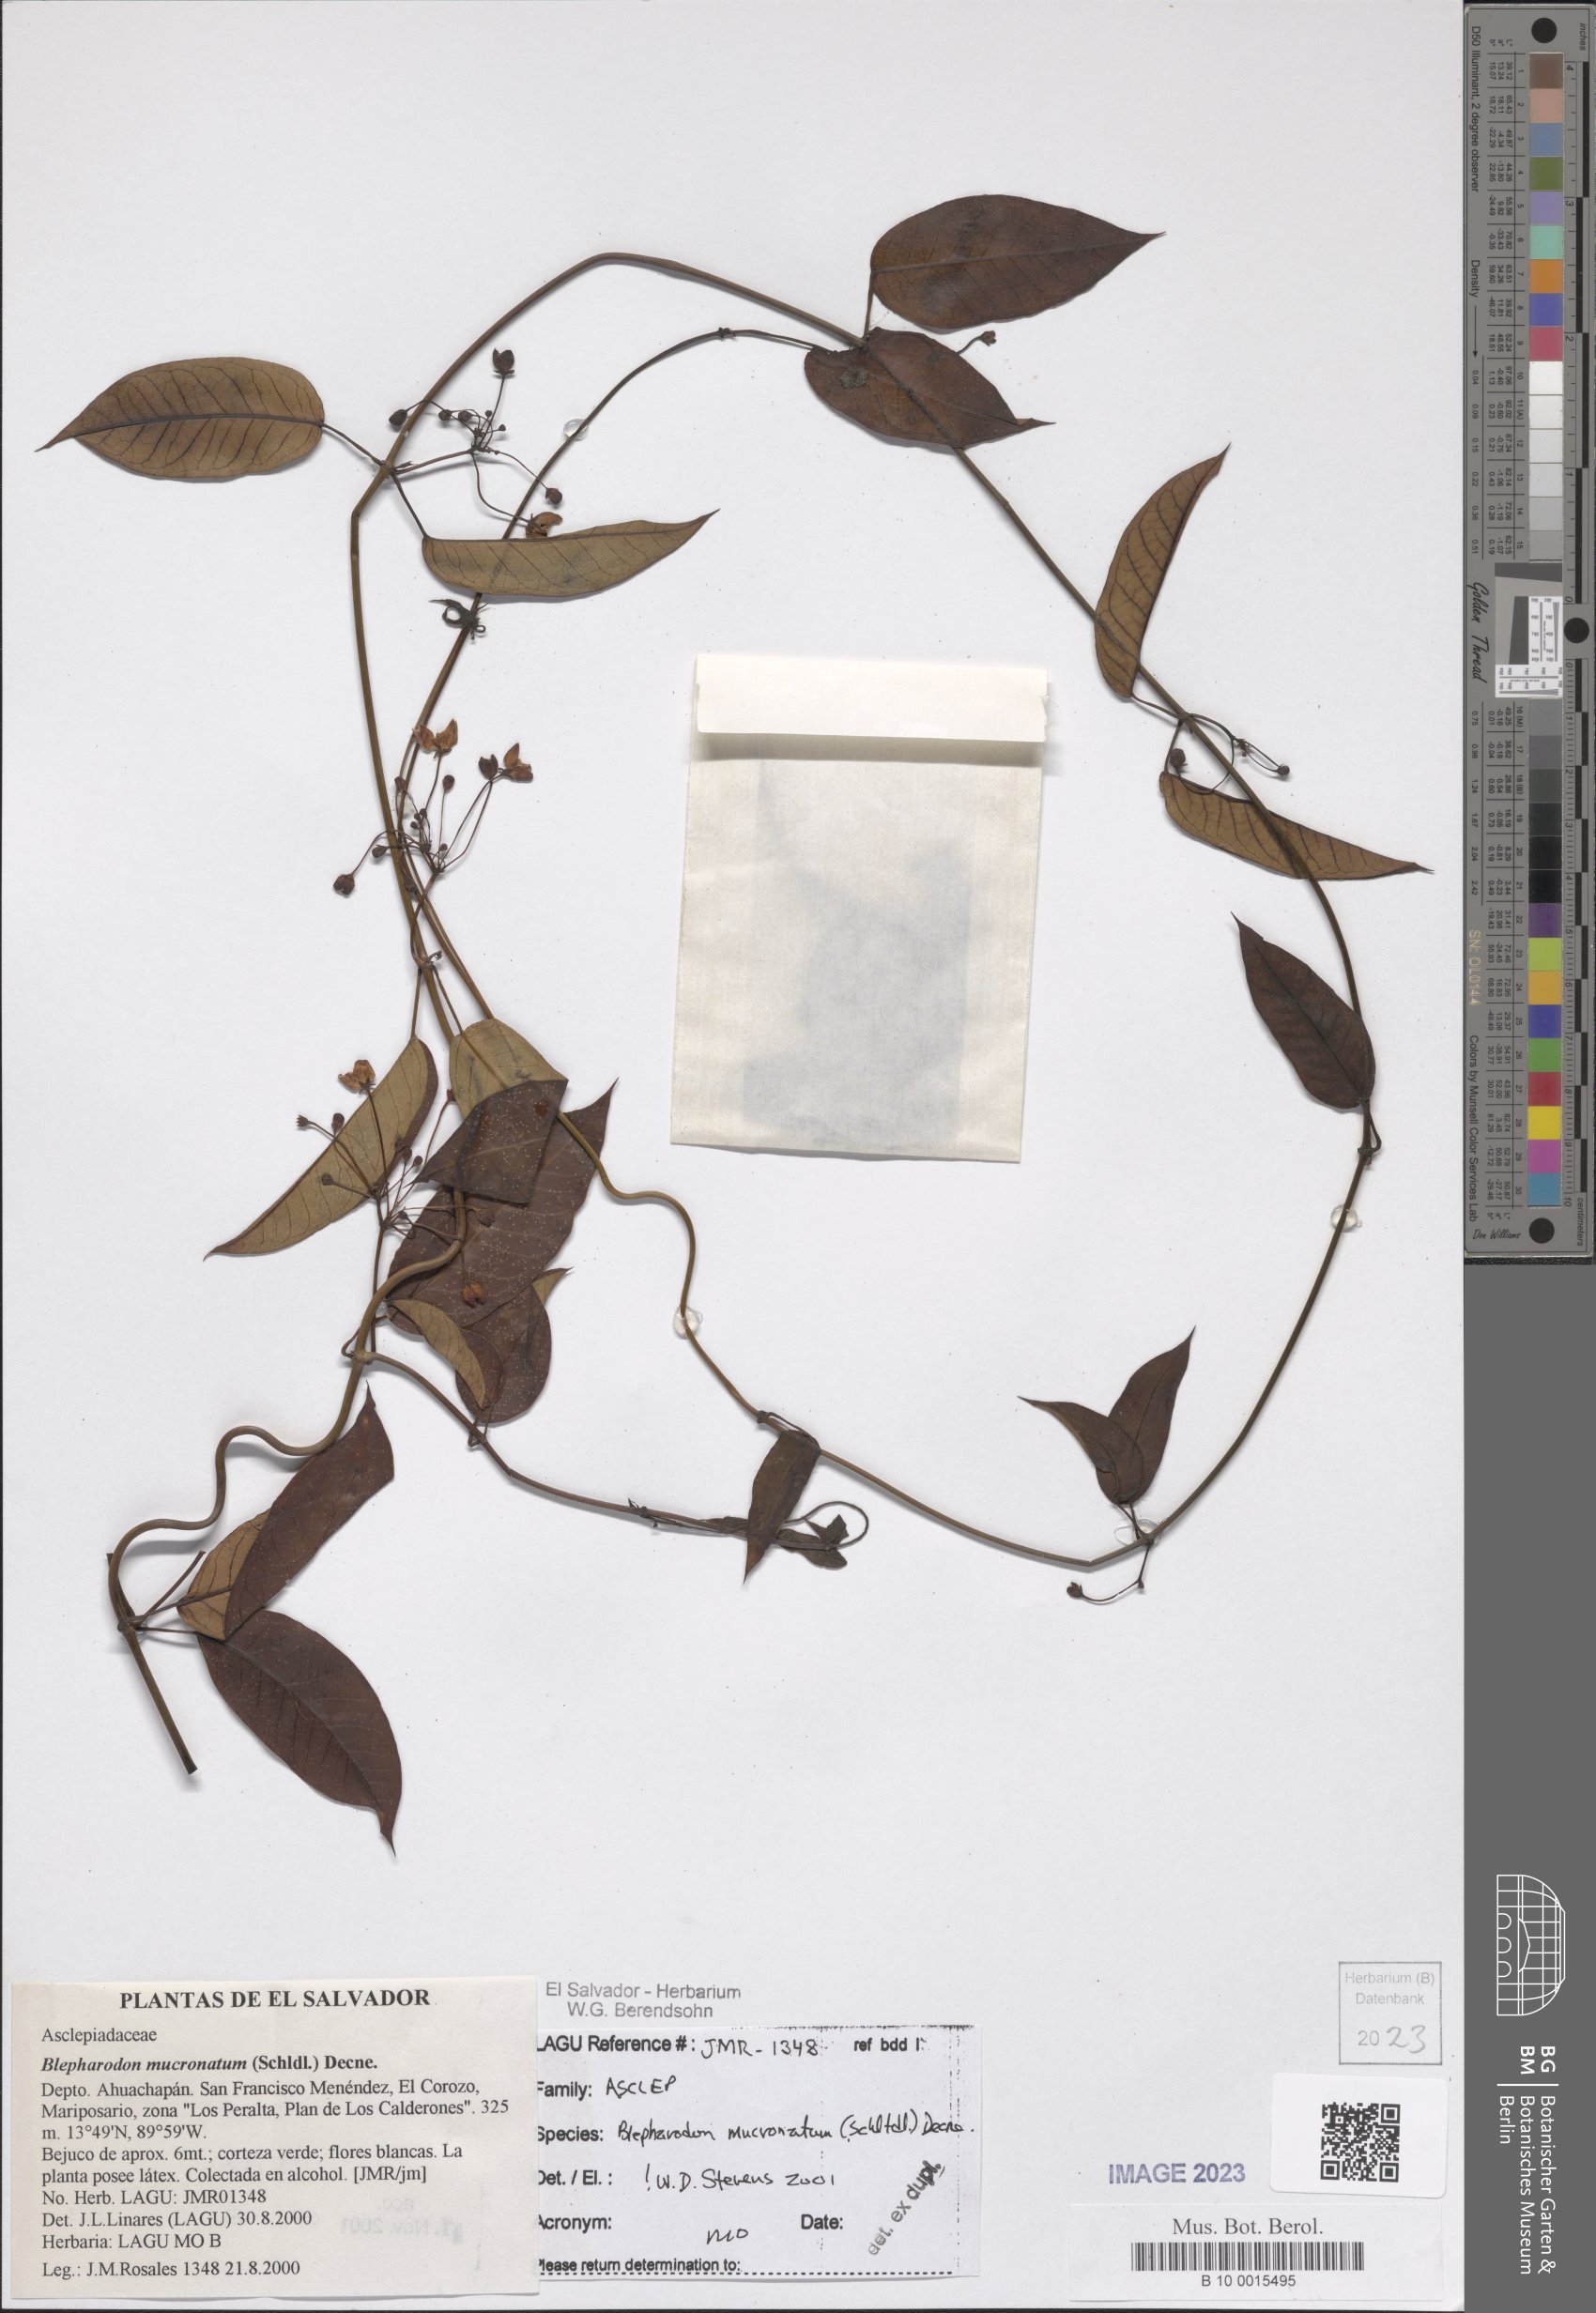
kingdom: Plantae
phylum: Tracheophyta
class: Magnoliopsida
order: Gentianales
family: Apocynaceae
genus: Vailia
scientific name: Vailia anomala
